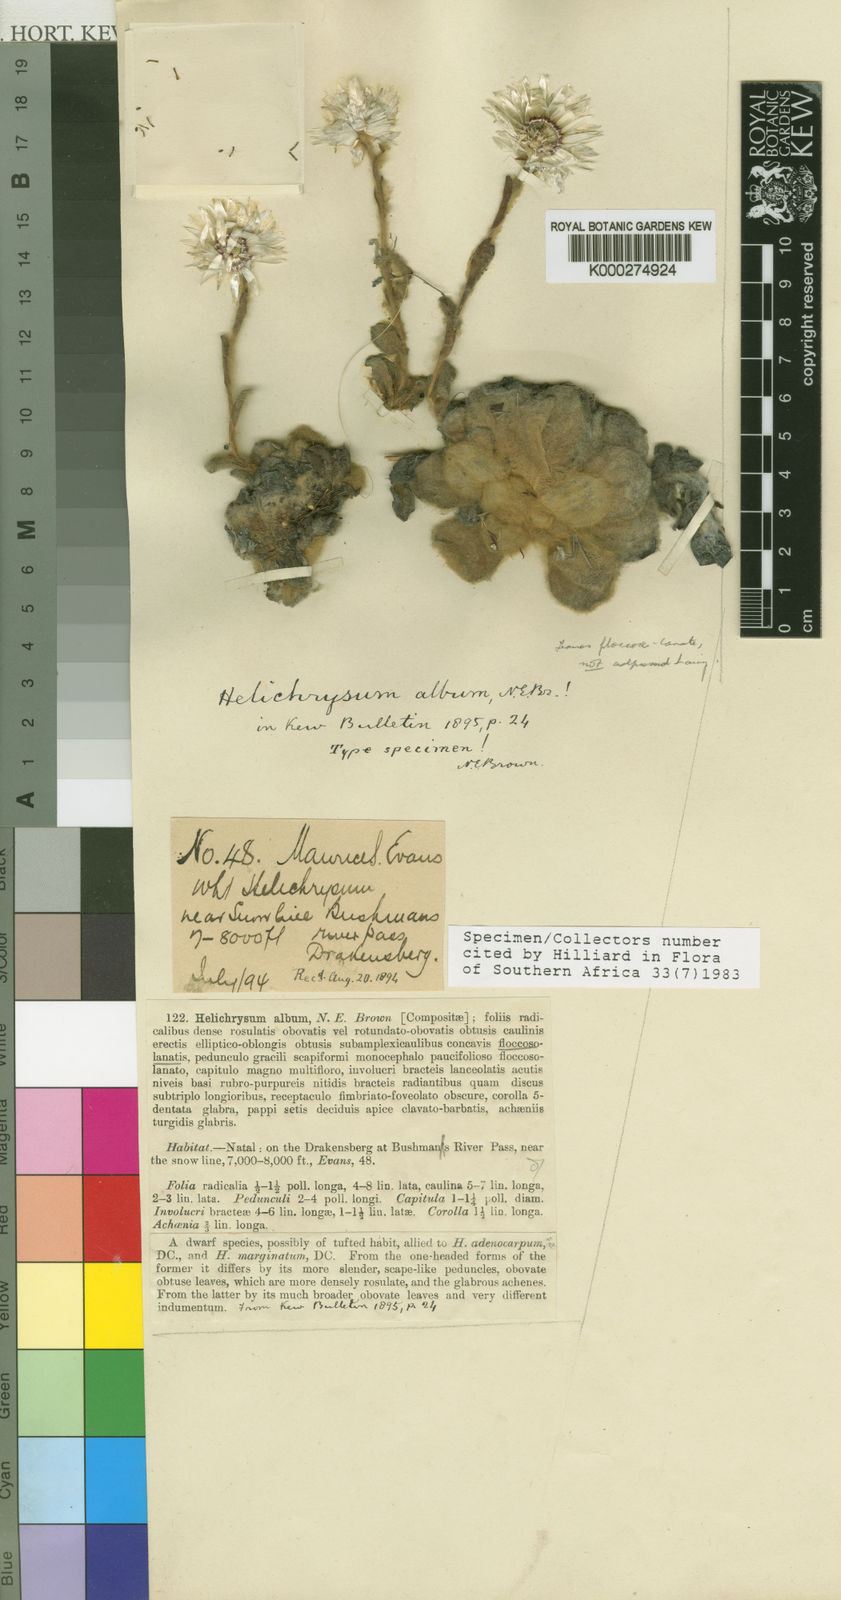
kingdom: Plantae
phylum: Tracheophyta
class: Magnoliopsida
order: Asterales
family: Asteraceae
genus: Helichrysum
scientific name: Helichrysum album
